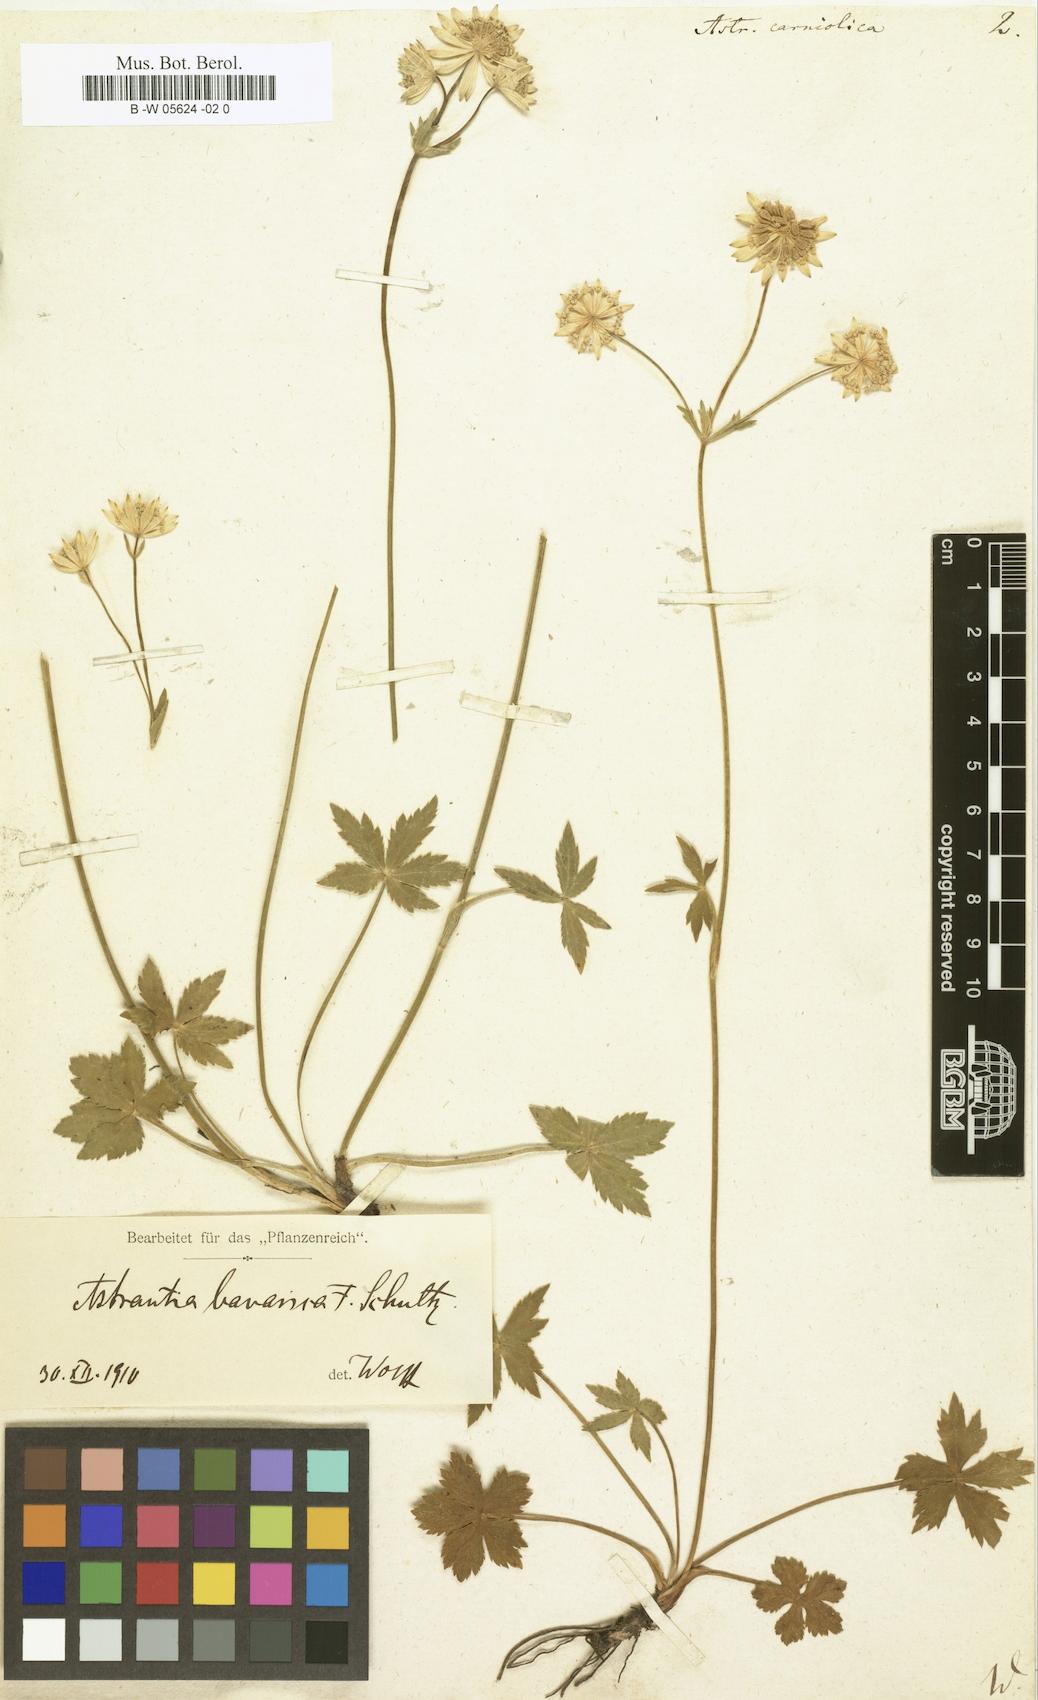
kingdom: Plantae
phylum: Tracheophyta
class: Magnoliopsida
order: Apiales
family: Apiaceae
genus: Astrantia
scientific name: Astrantia carniolica
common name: Carnic masterwort
